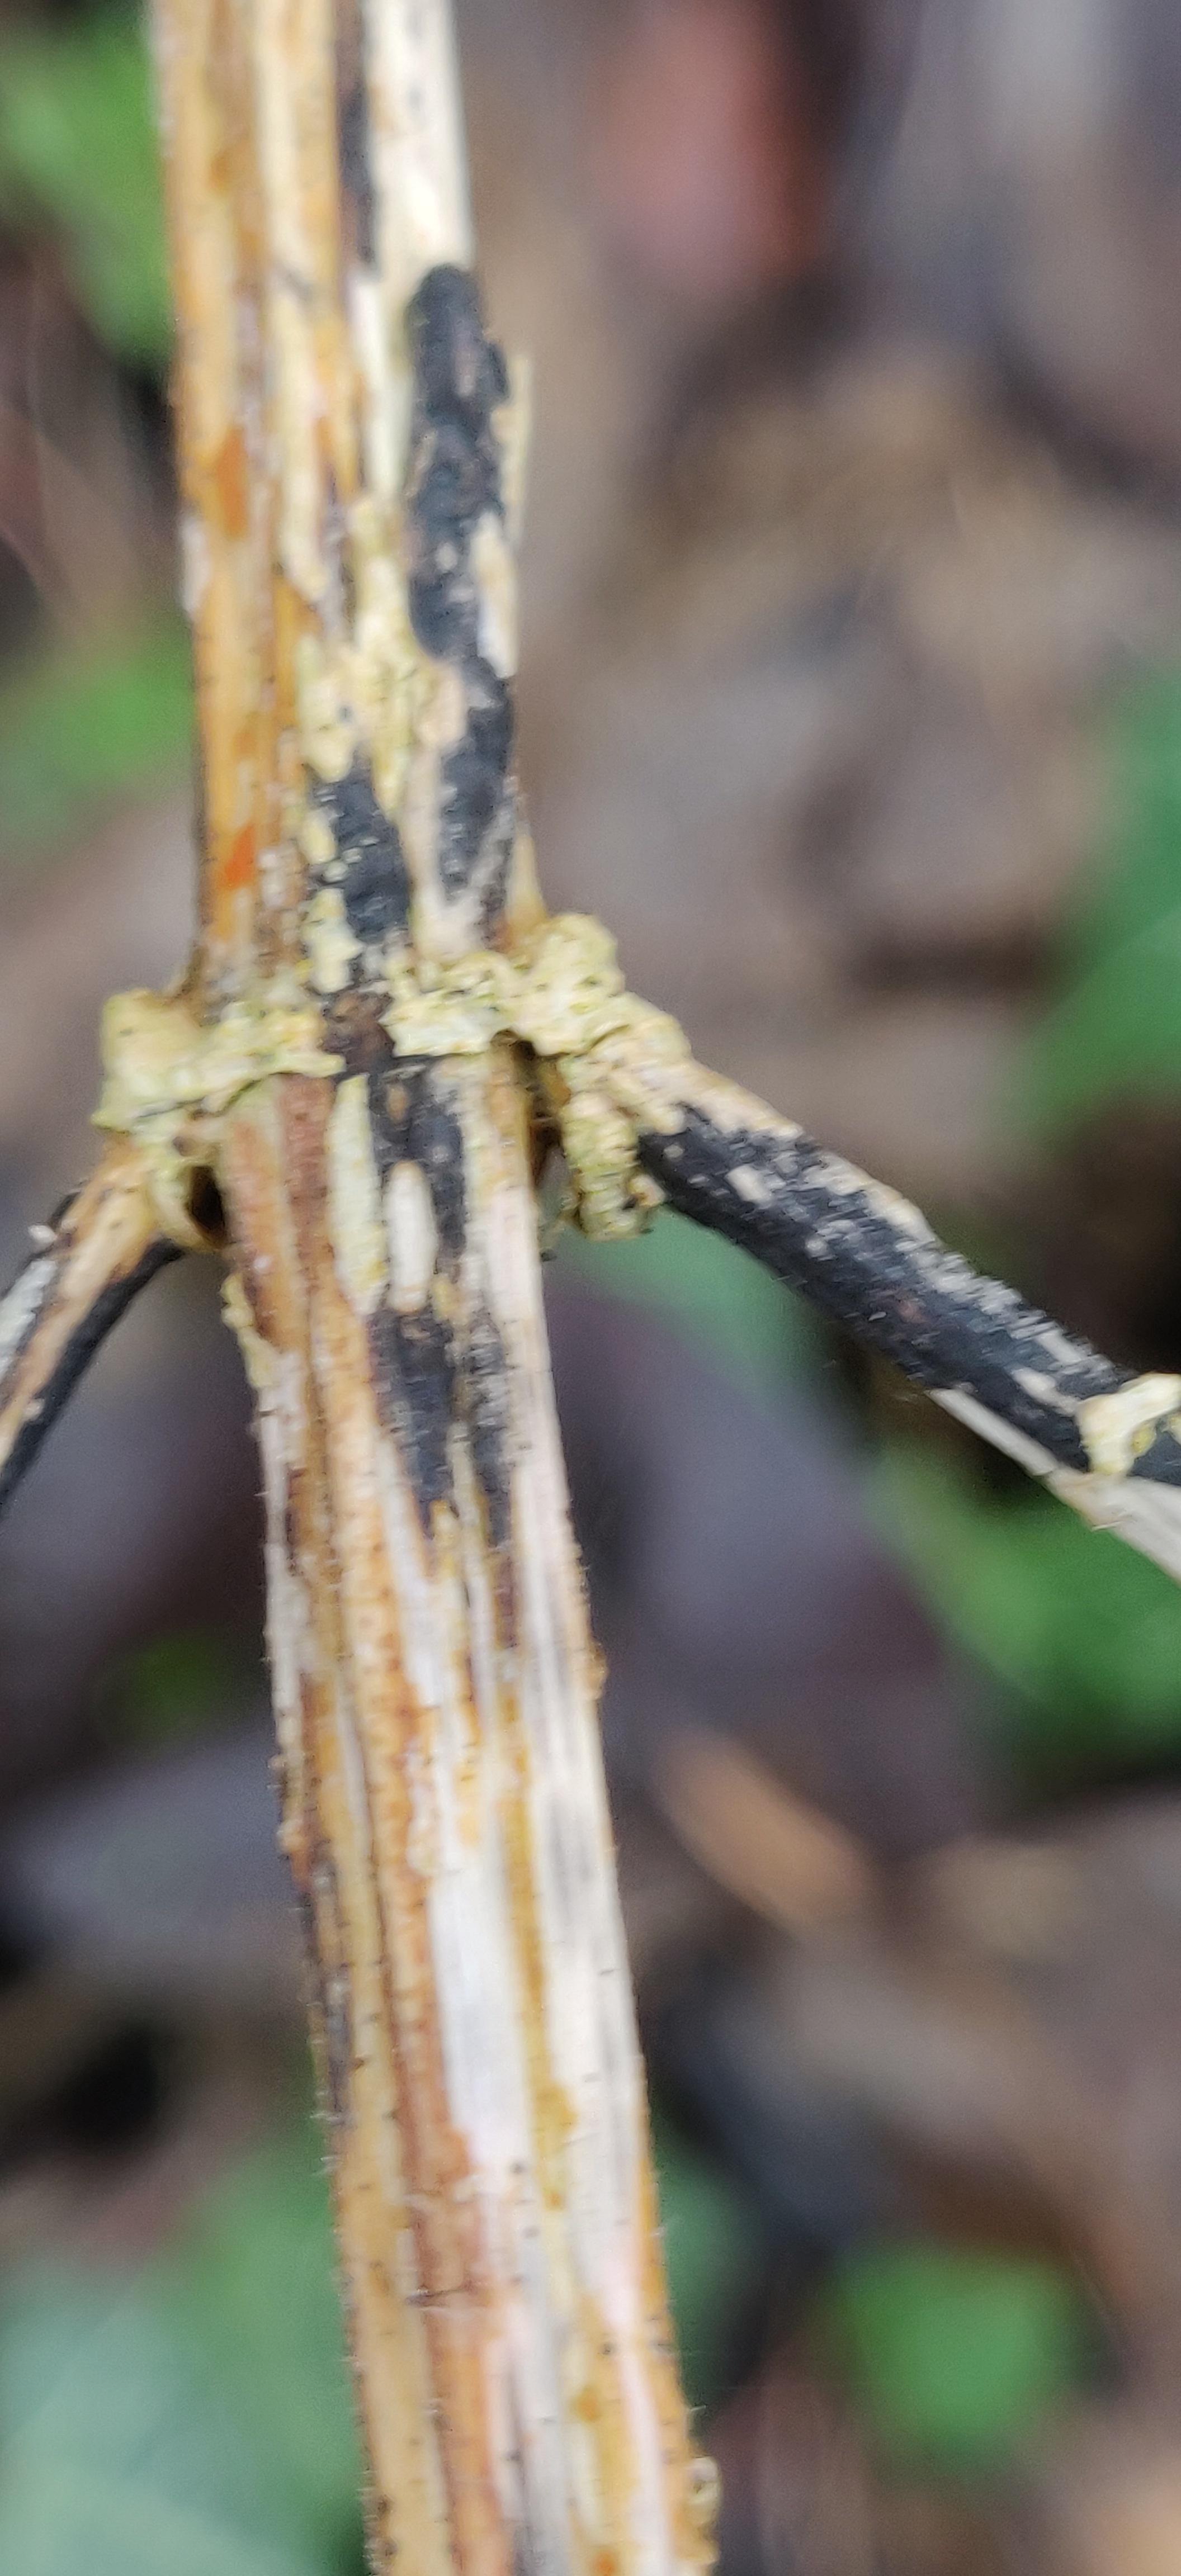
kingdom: Fungi
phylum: Ascomycota
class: Sordariomycetes
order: Diaporthales
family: Diaporthaceae
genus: Diaporthopsis
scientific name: Diaporthopsis urticae
